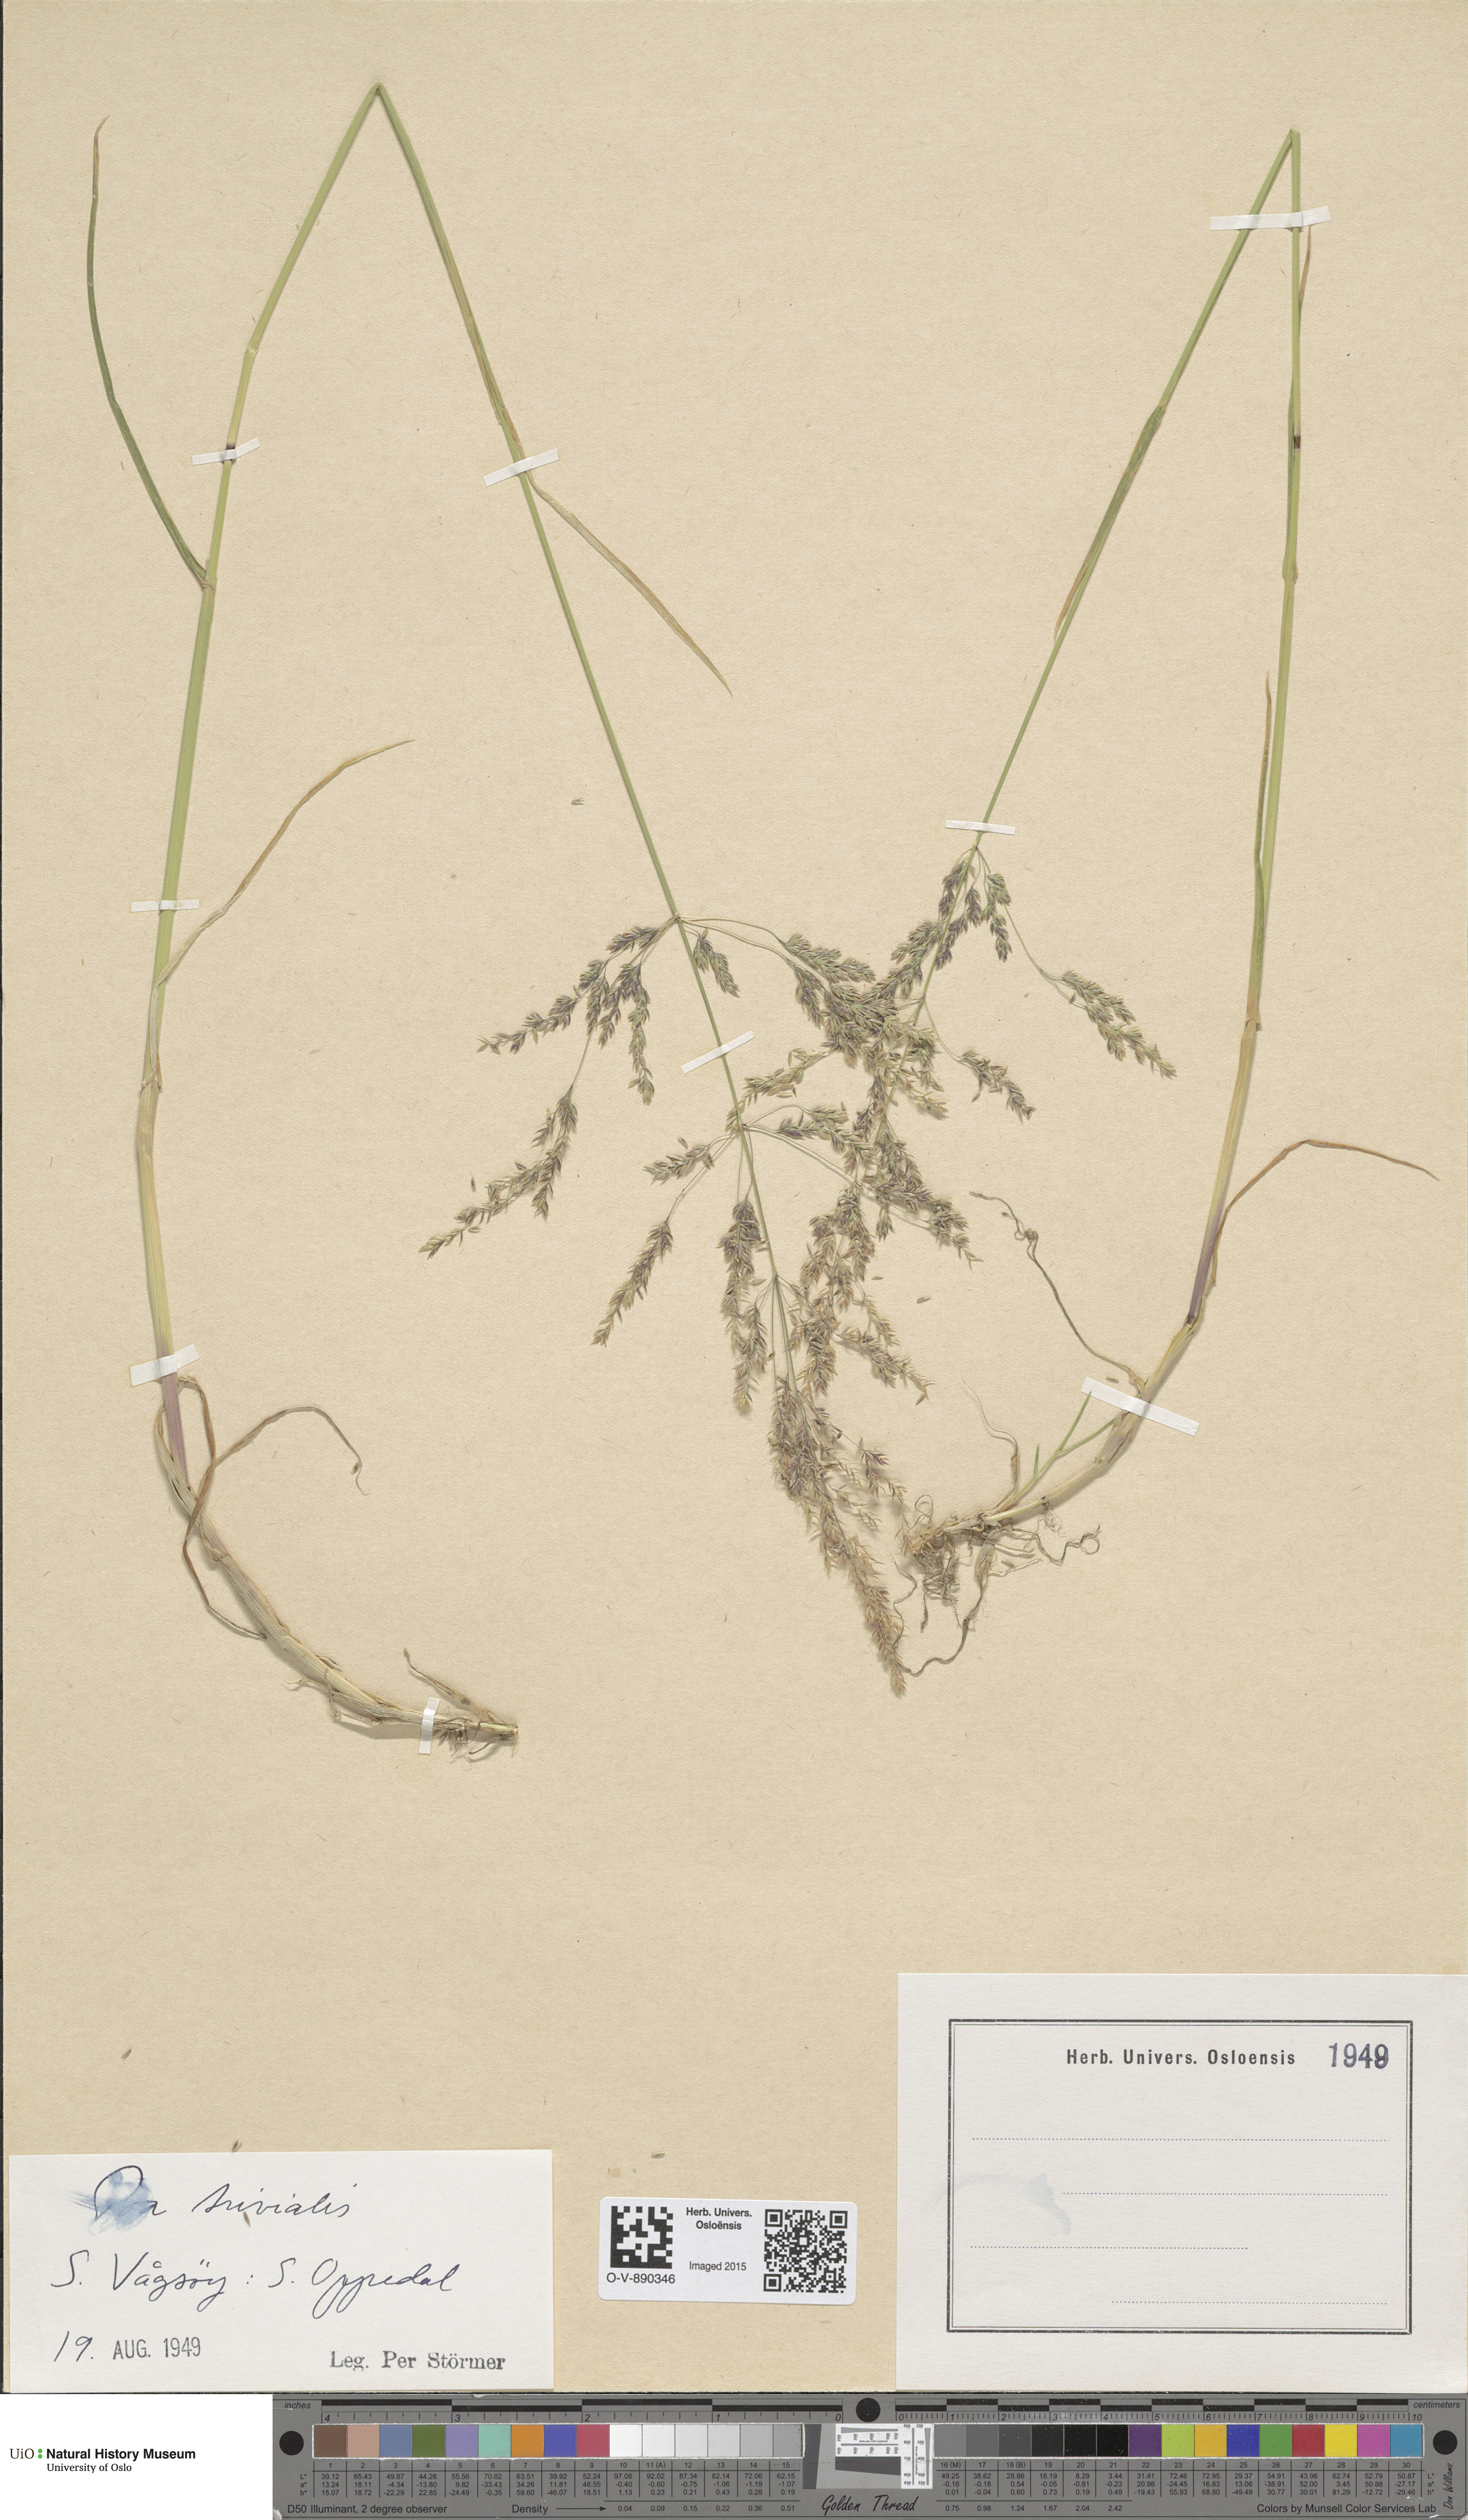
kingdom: Plantae
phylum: Tracheophyta
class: Liliopsida
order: Poales
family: Poaceae
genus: Poa
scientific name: Poa trivialis
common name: Rough bluegrass
